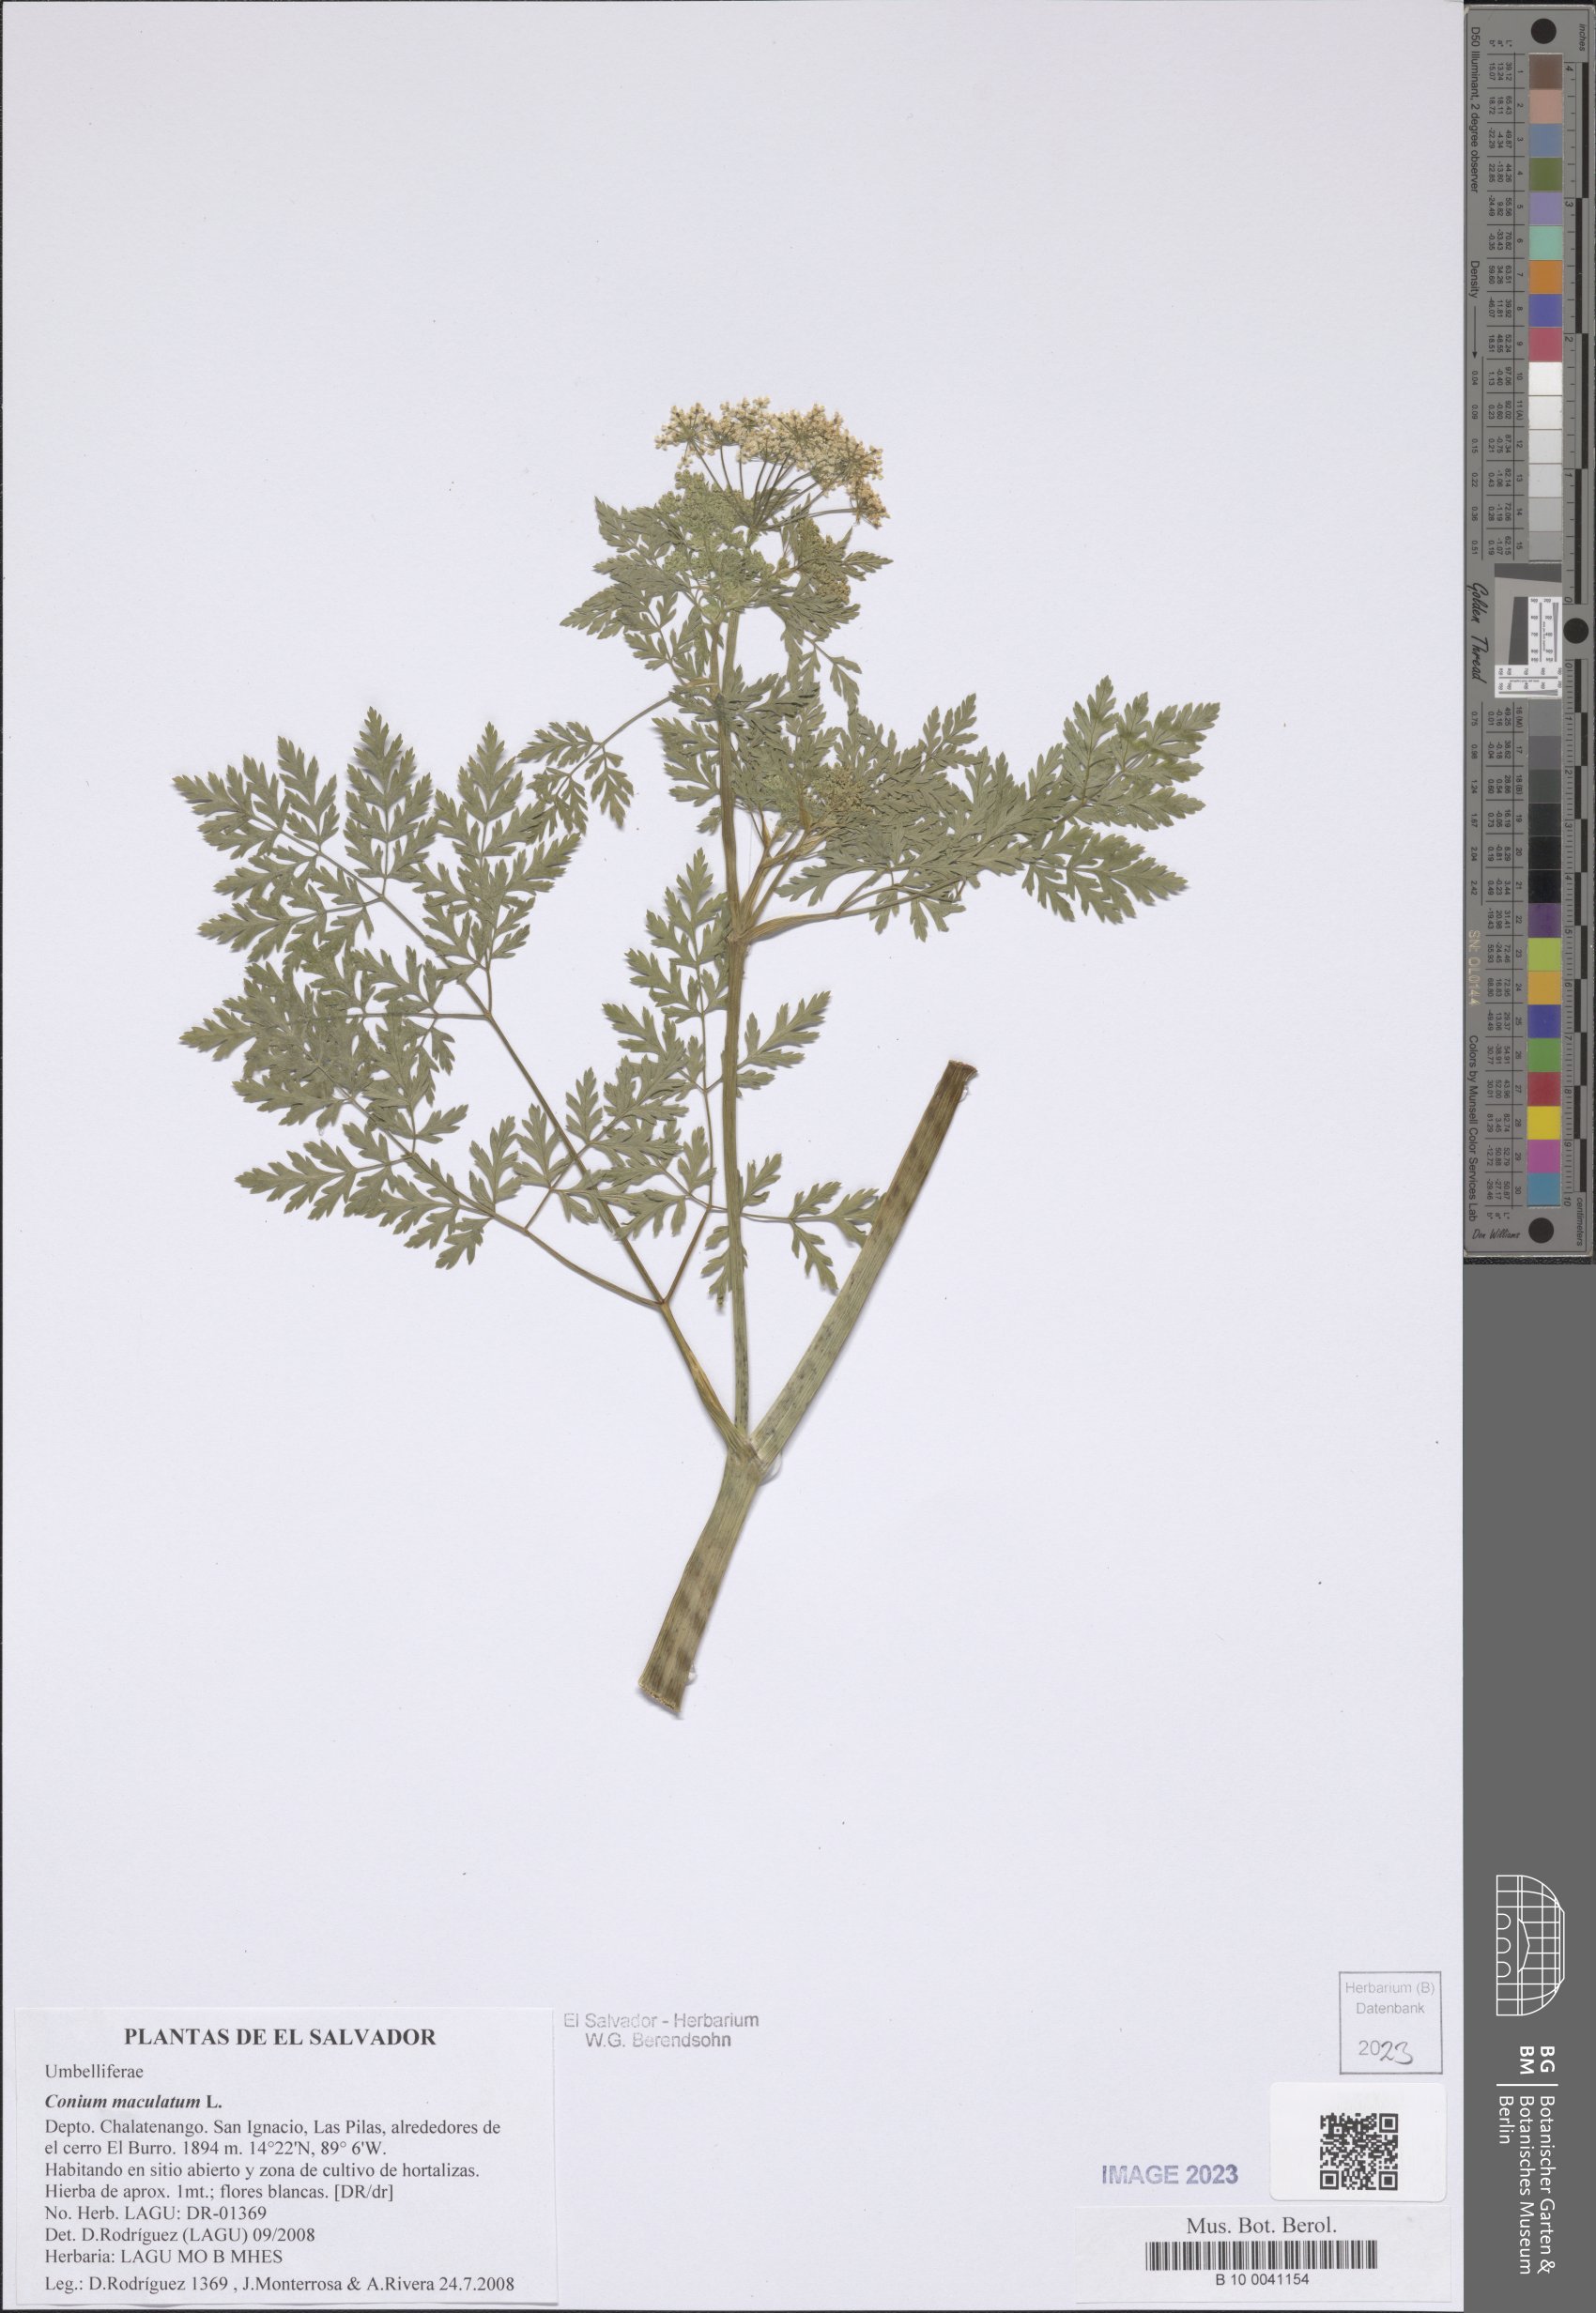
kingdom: Plantae
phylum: Tracheophyta
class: Magnoliopsida
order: Apiales
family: Apiaceae
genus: Conium
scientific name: Conium maculatum
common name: Hemlock
